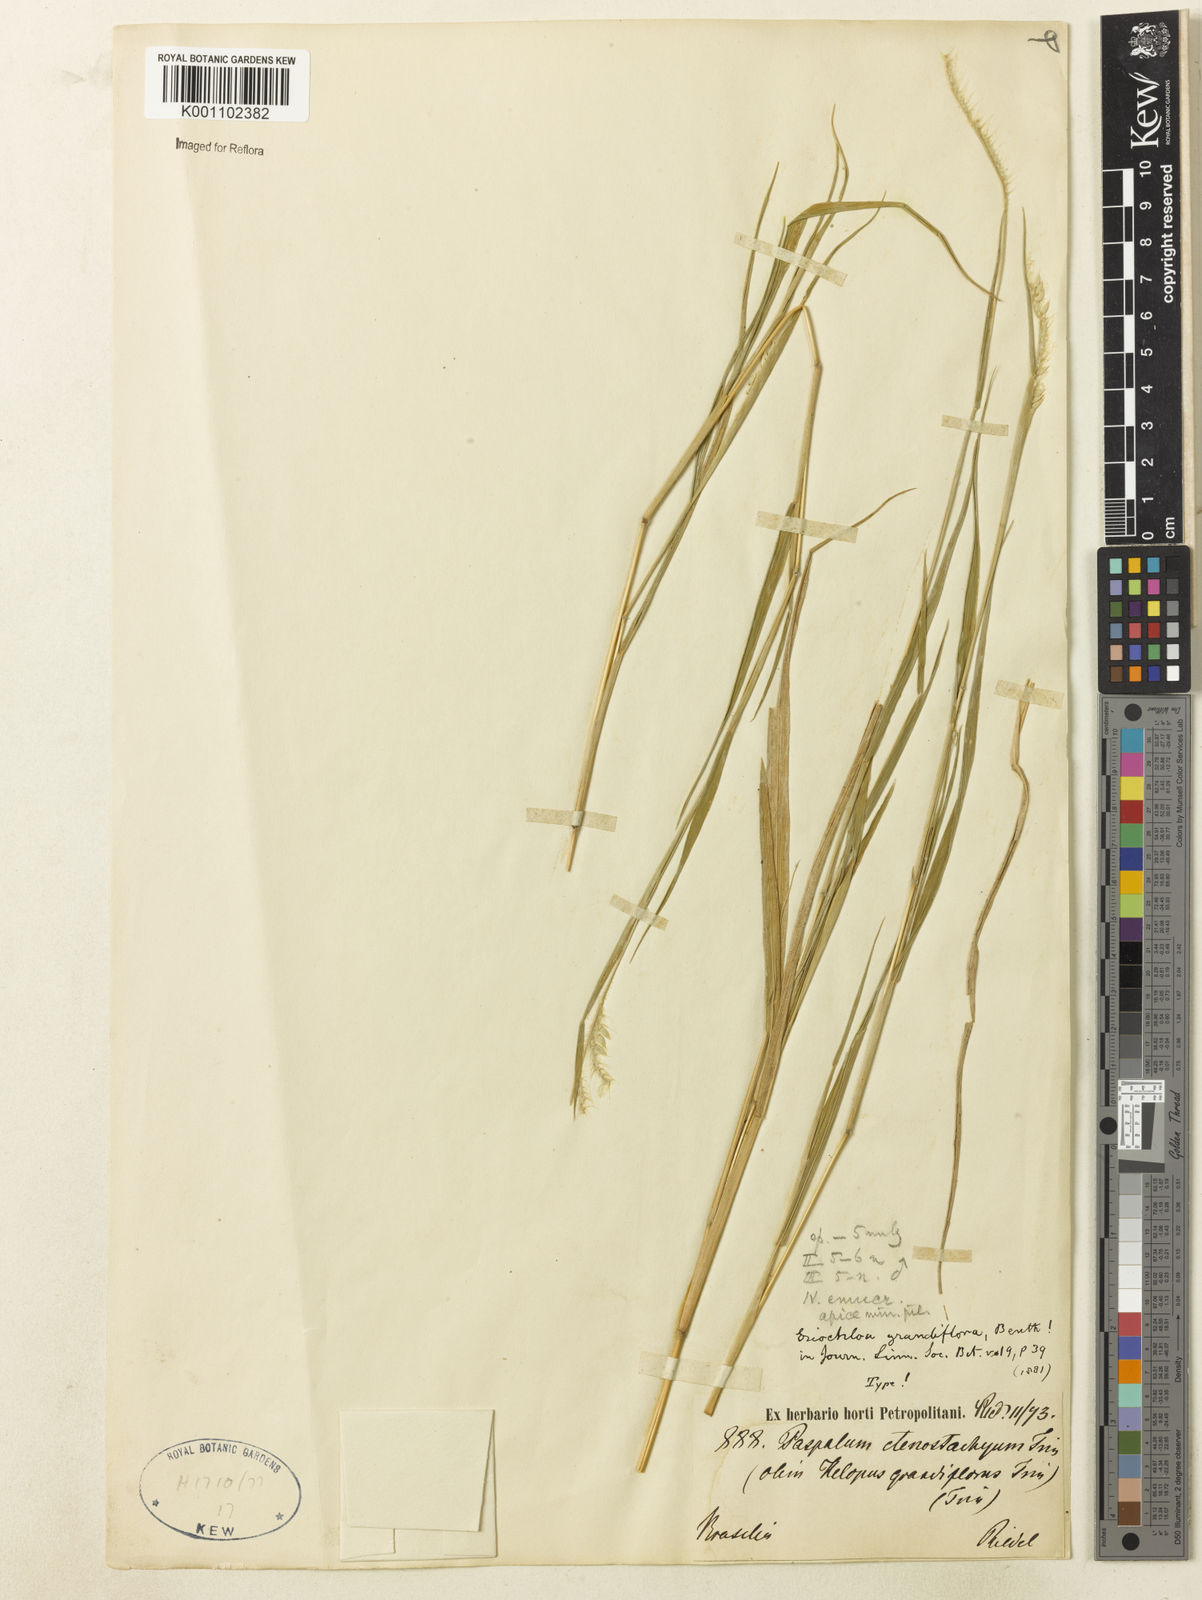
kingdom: Plantae
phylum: Tracheophyta
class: Liliopsida
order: Poales
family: Poaceae
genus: Eriochloa
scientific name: Eriochloa grandiflora
